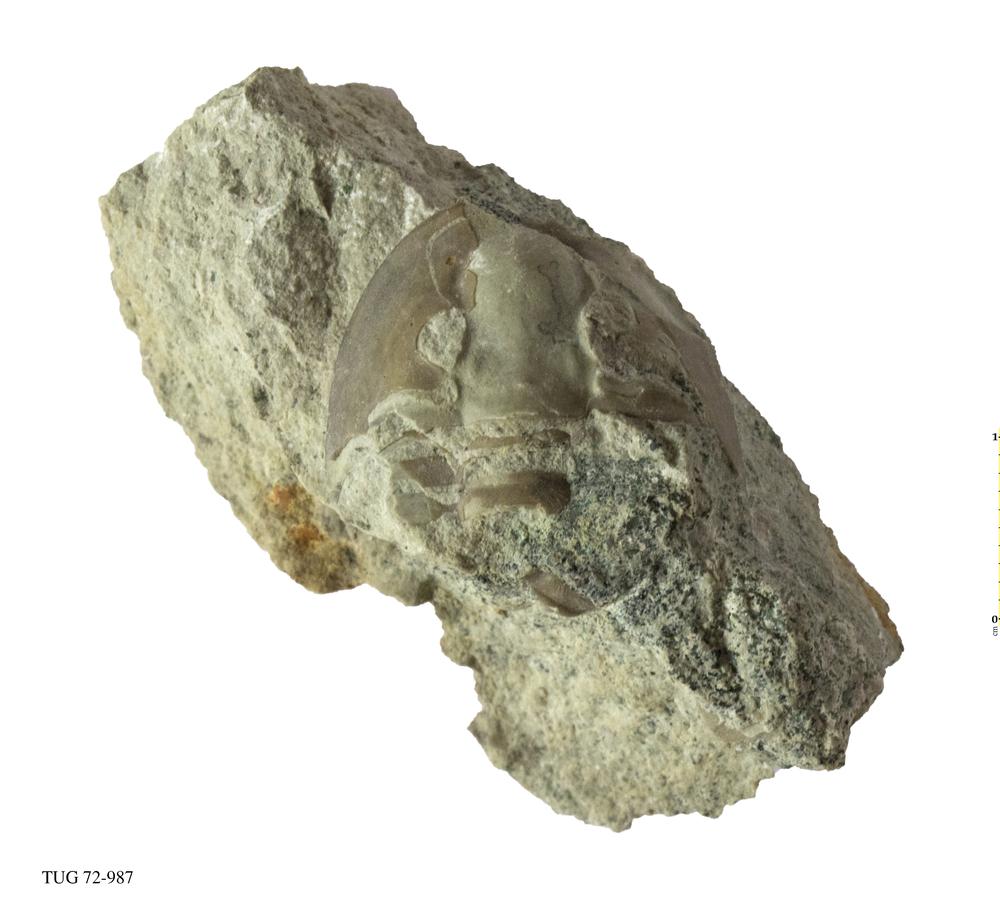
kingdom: Animalia
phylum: Arthropoda
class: Trilobita
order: Asaphida
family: Asaphidae
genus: Metaptychopyge
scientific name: Metaptychopyge Ptychopyge truncata
